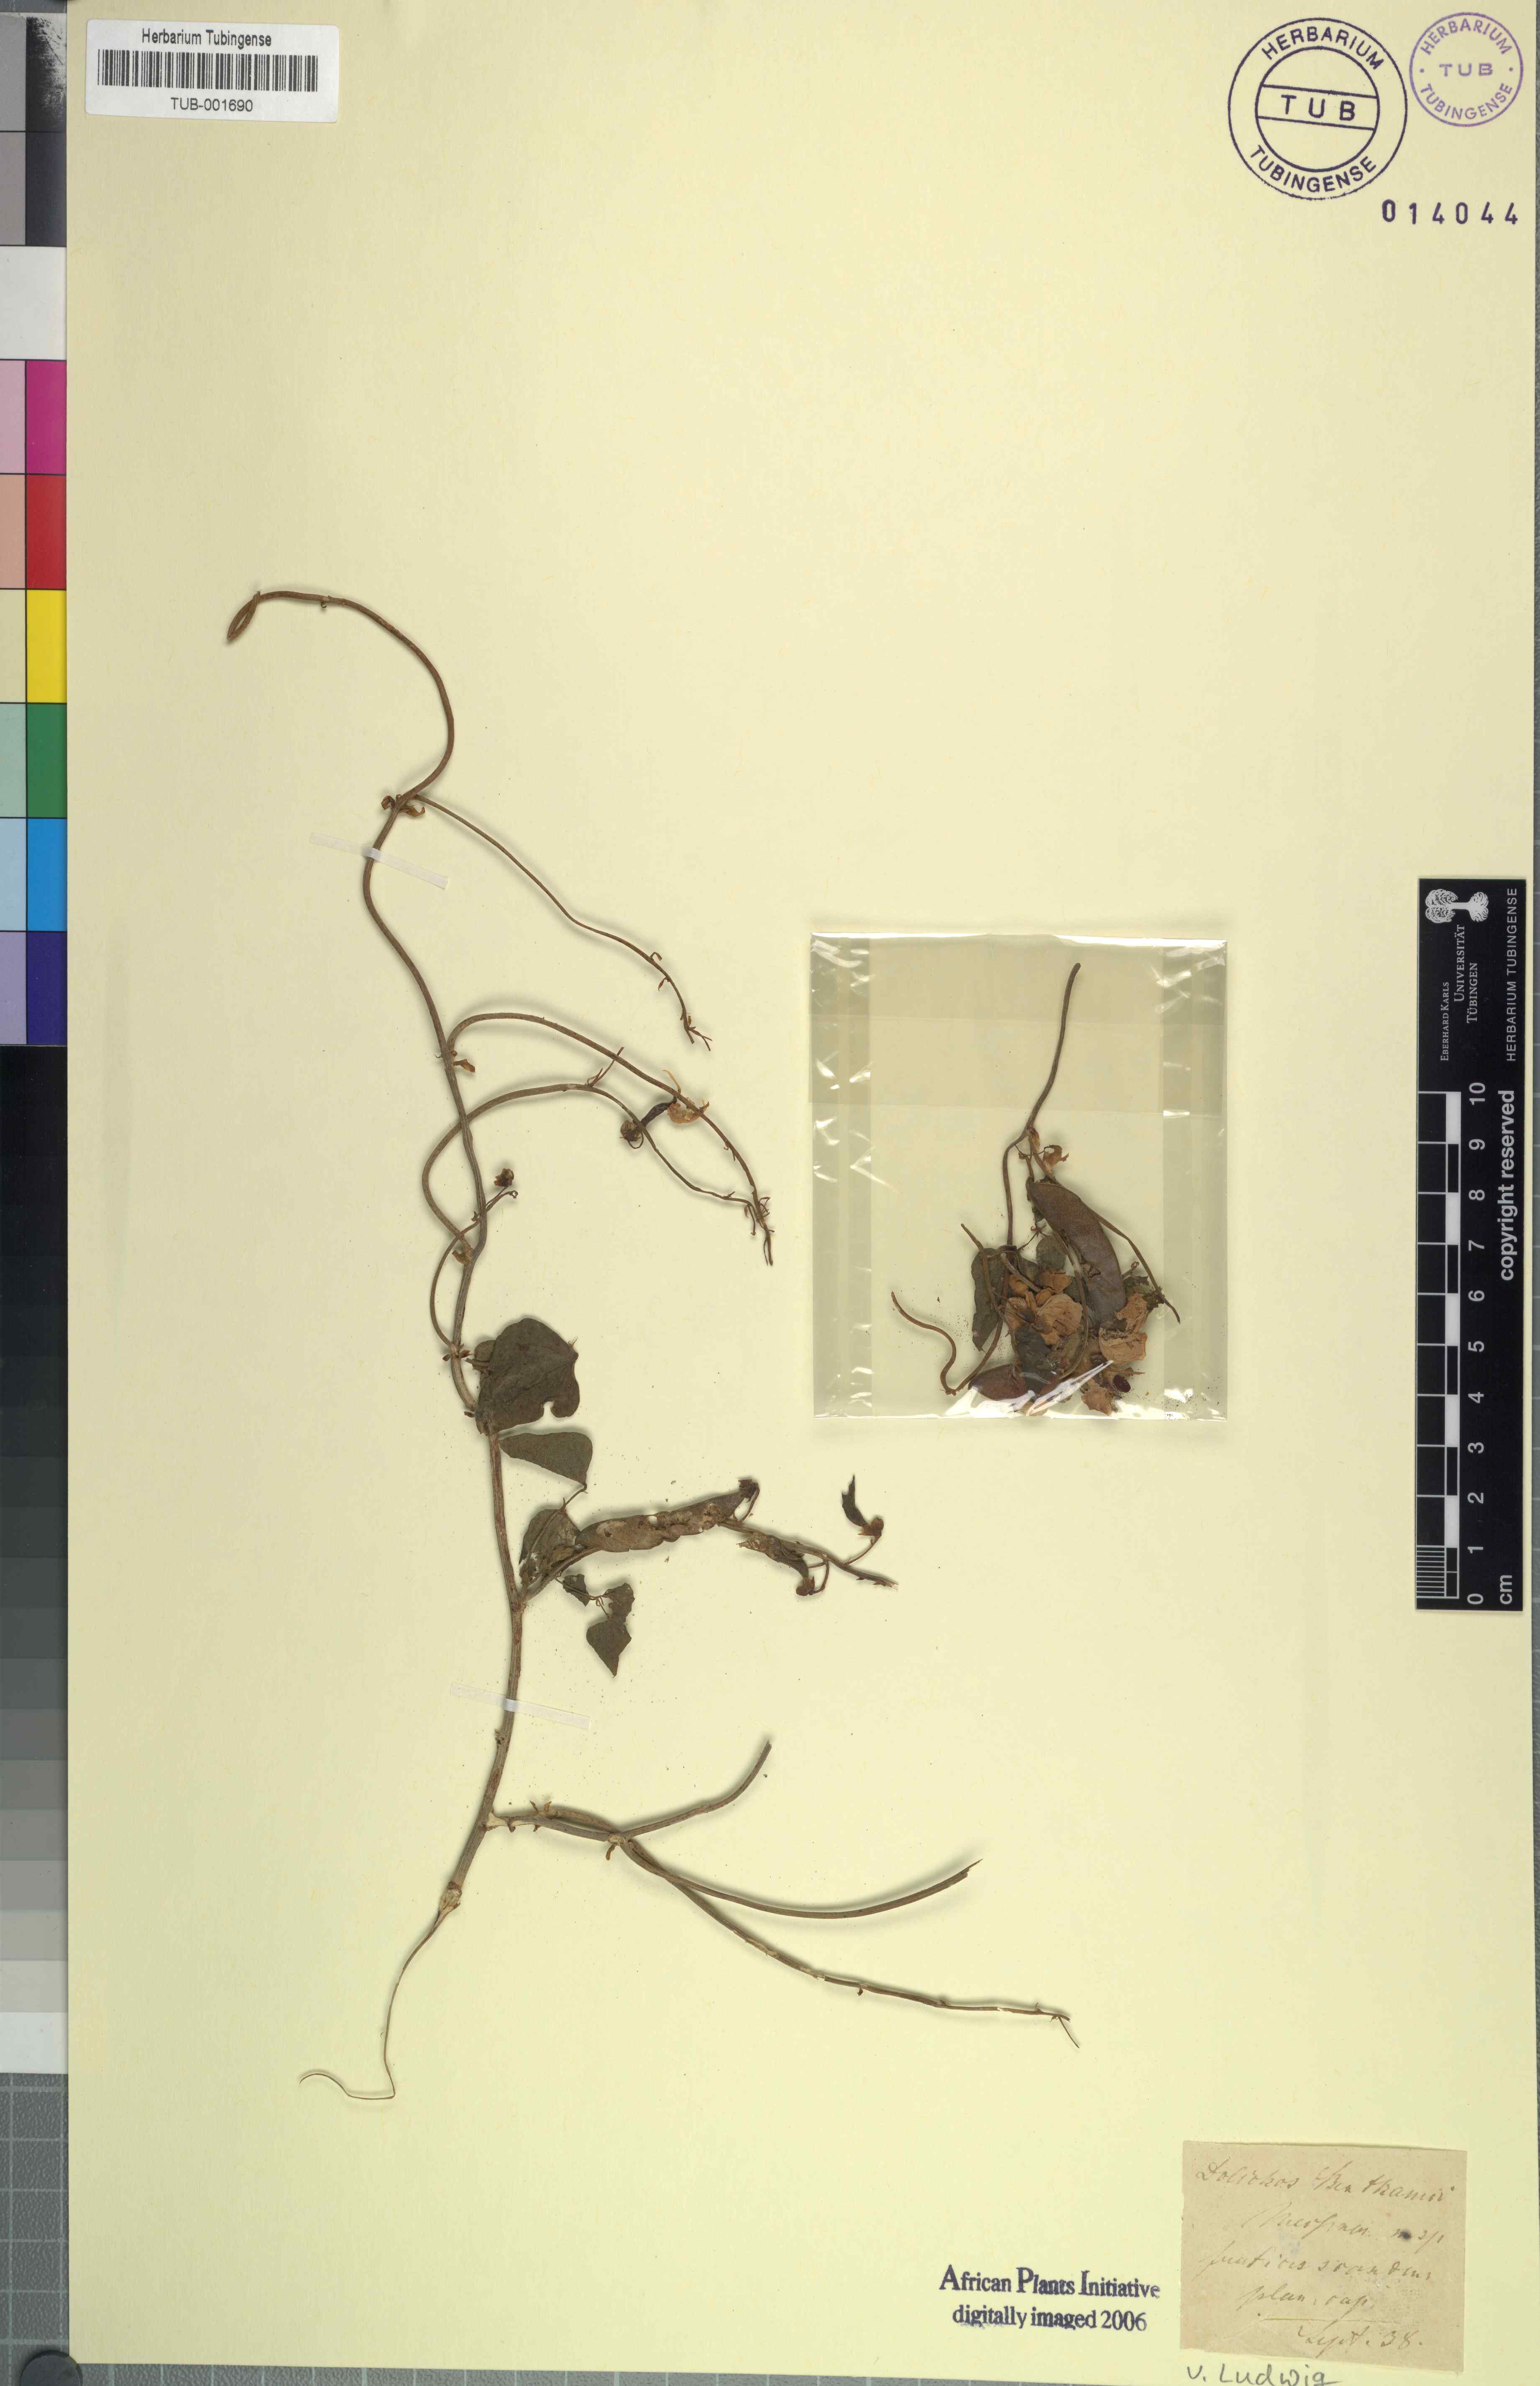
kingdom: Plantae
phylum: Tracheophyta
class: Magnoliopsida
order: Fabales
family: Fabaceae
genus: Dipogon
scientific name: Dipogon lignosus
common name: Okie bean
